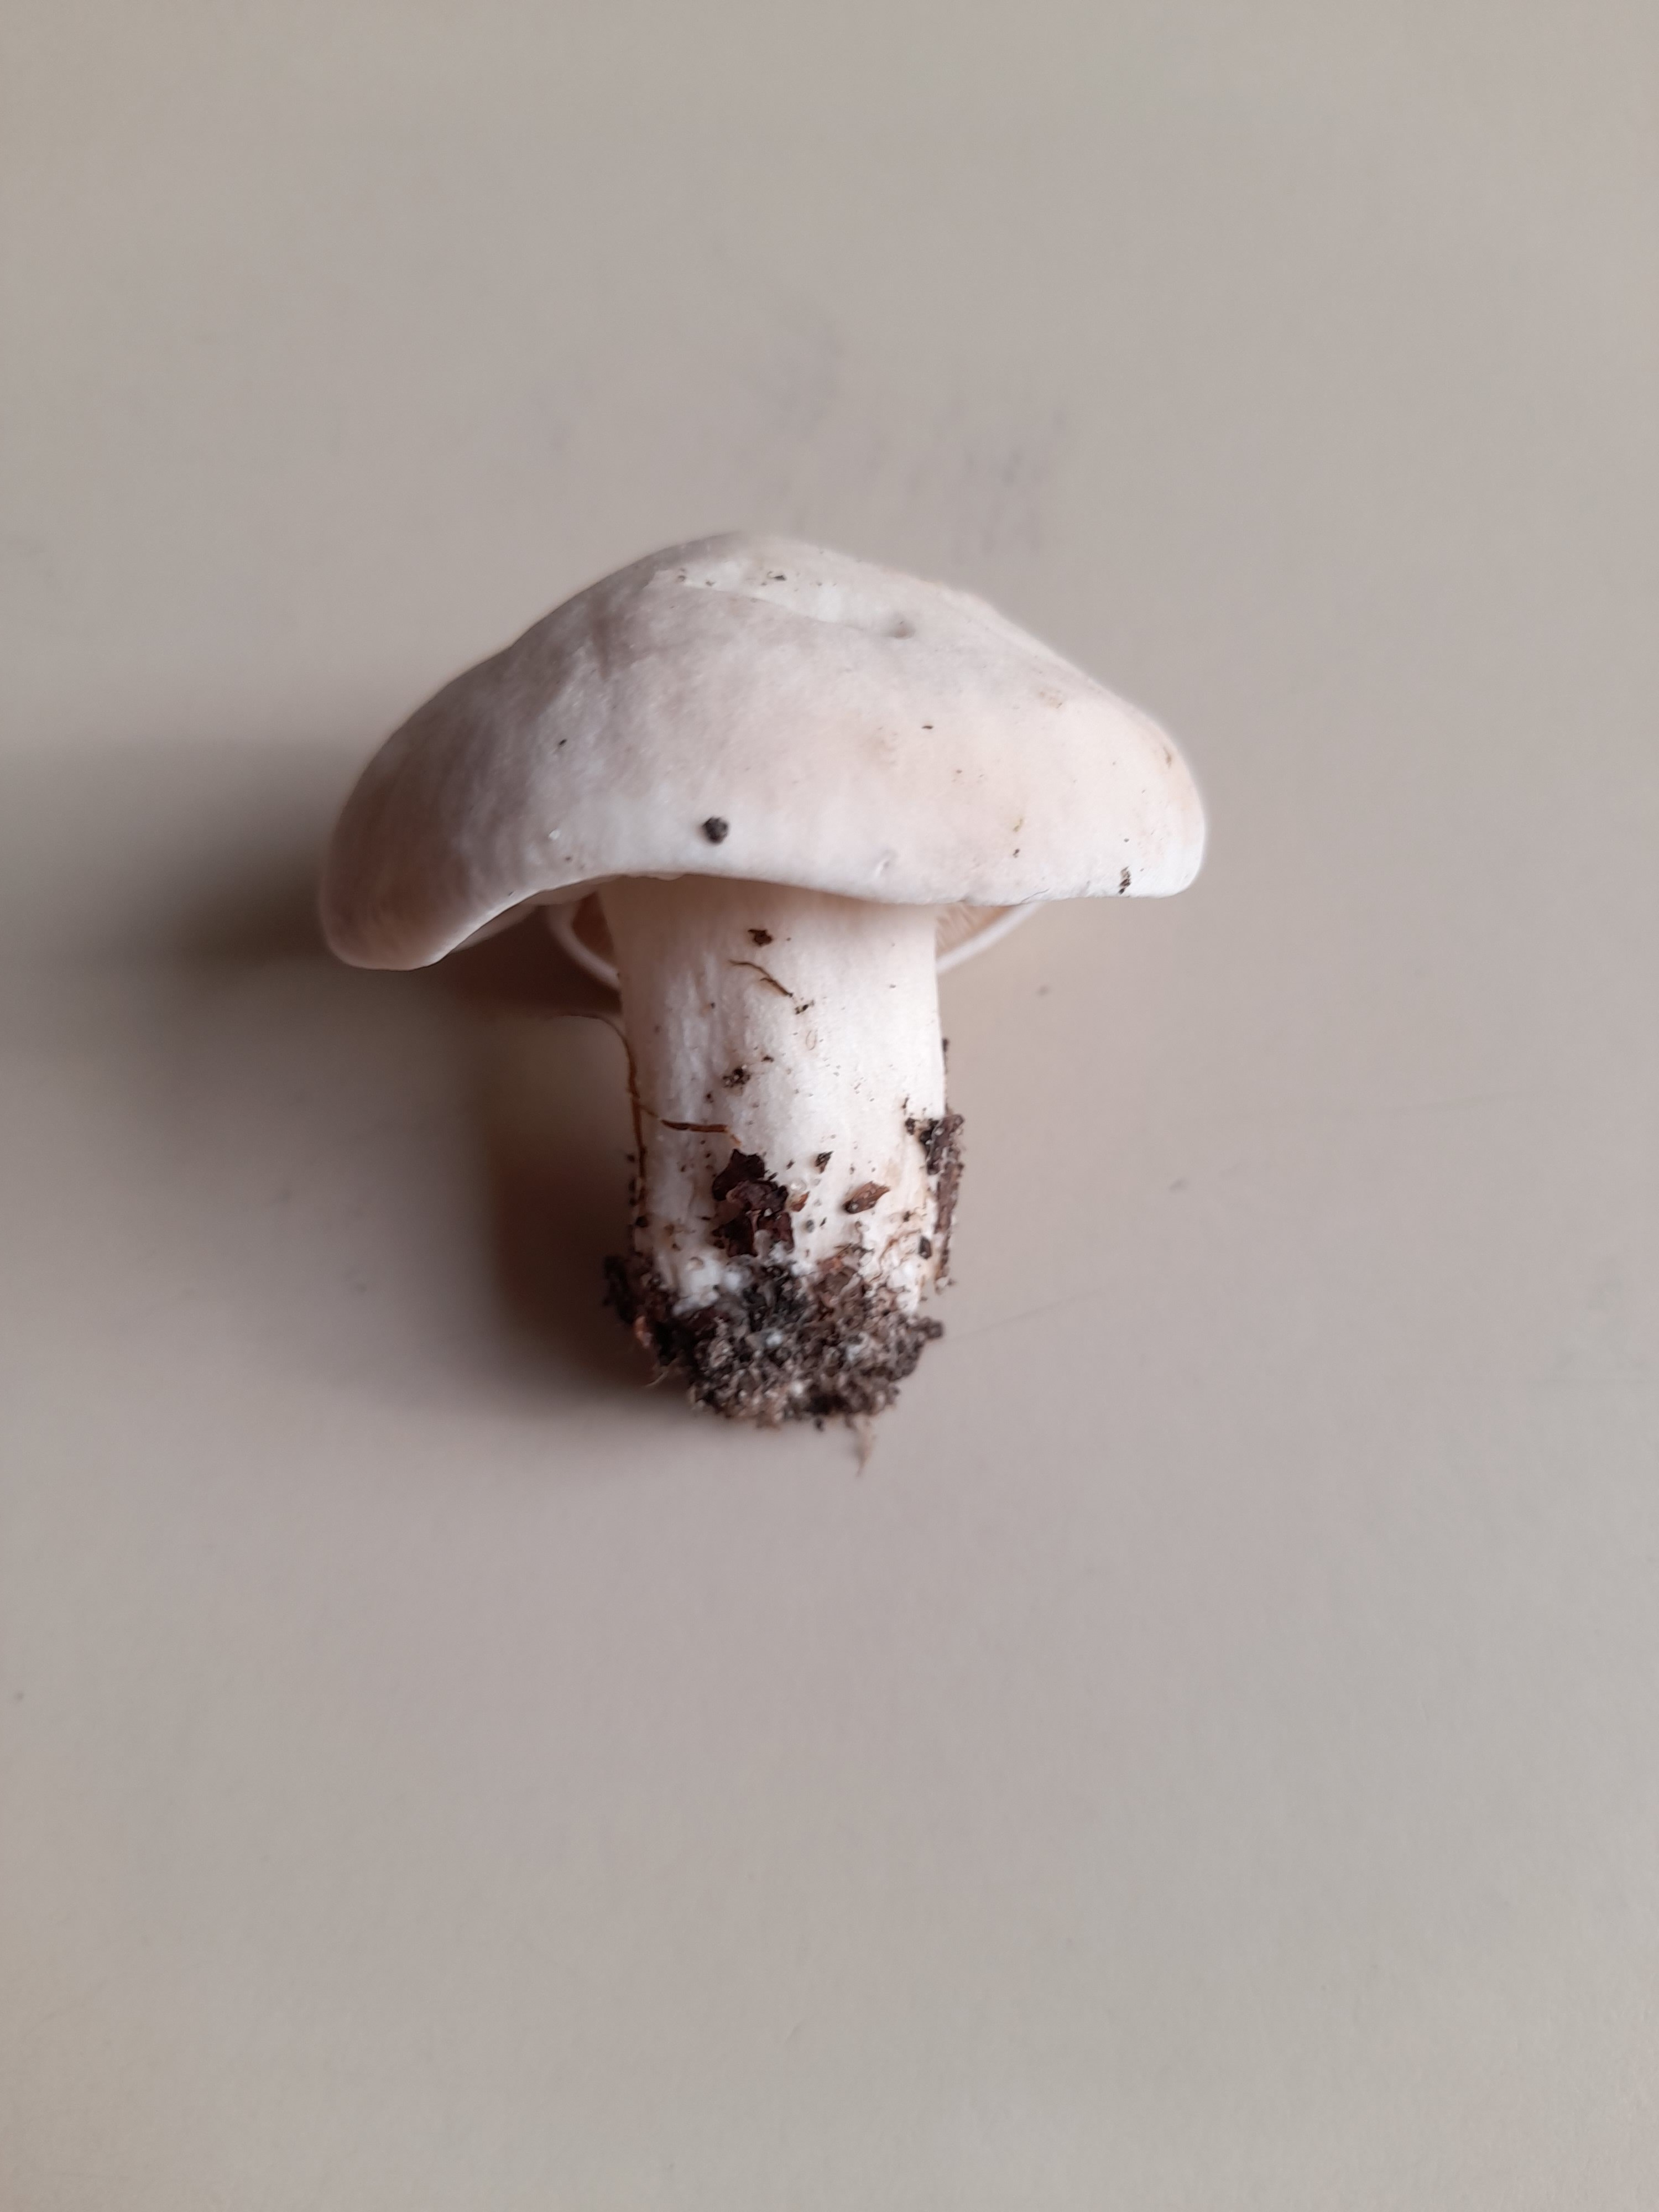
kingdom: Fungi
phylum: Basidiomycota
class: Agaricomycetes
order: Agaricales
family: Lyophyllaceae
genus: Calocybe
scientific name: Calocybe gambosa
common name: vårmusseron
